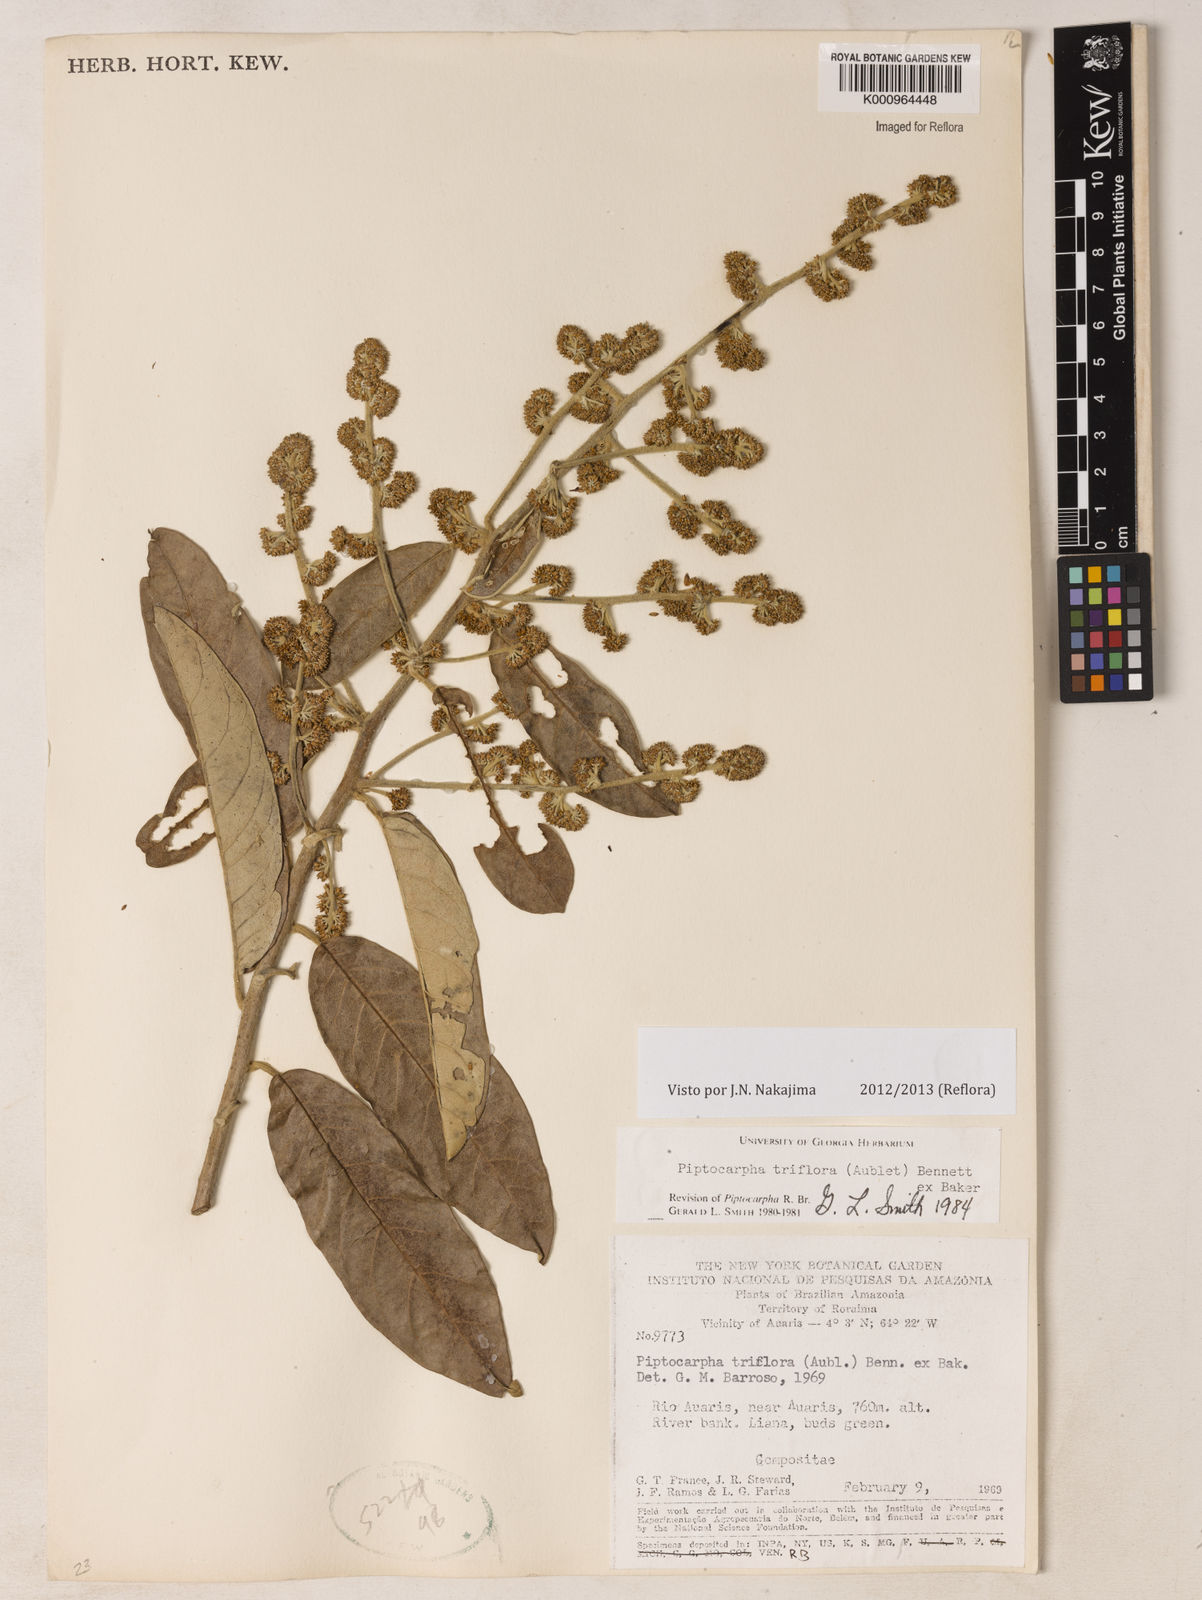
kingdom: Plantae
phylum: Tracheophyta
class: Magnoliopsida
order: Asterales
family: Asteraceae
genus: Piptocarpha
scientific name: Piptocarpha triflora
